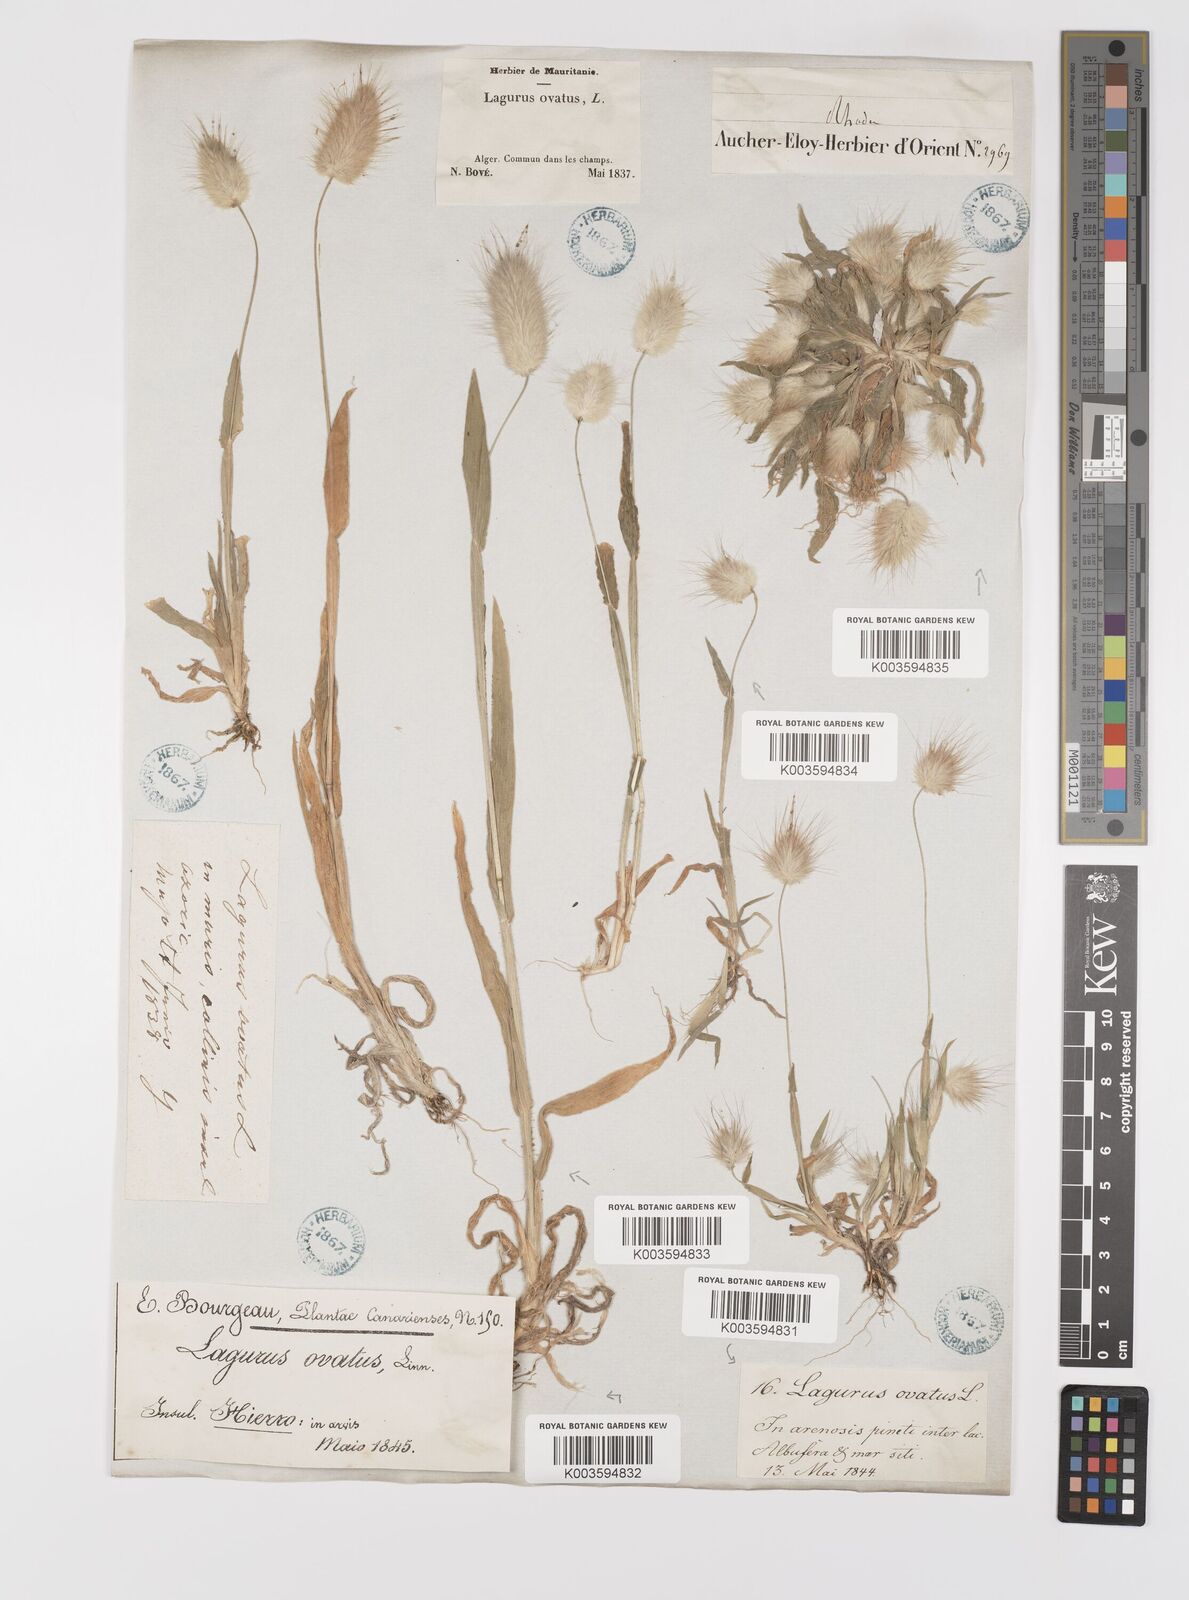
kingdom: Plantae
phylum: Tracheophyta
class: Liliopsida
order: Poales
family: Poaceae
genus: Lagurus
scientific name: Lagurus ovatus
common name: Hare's-tail
